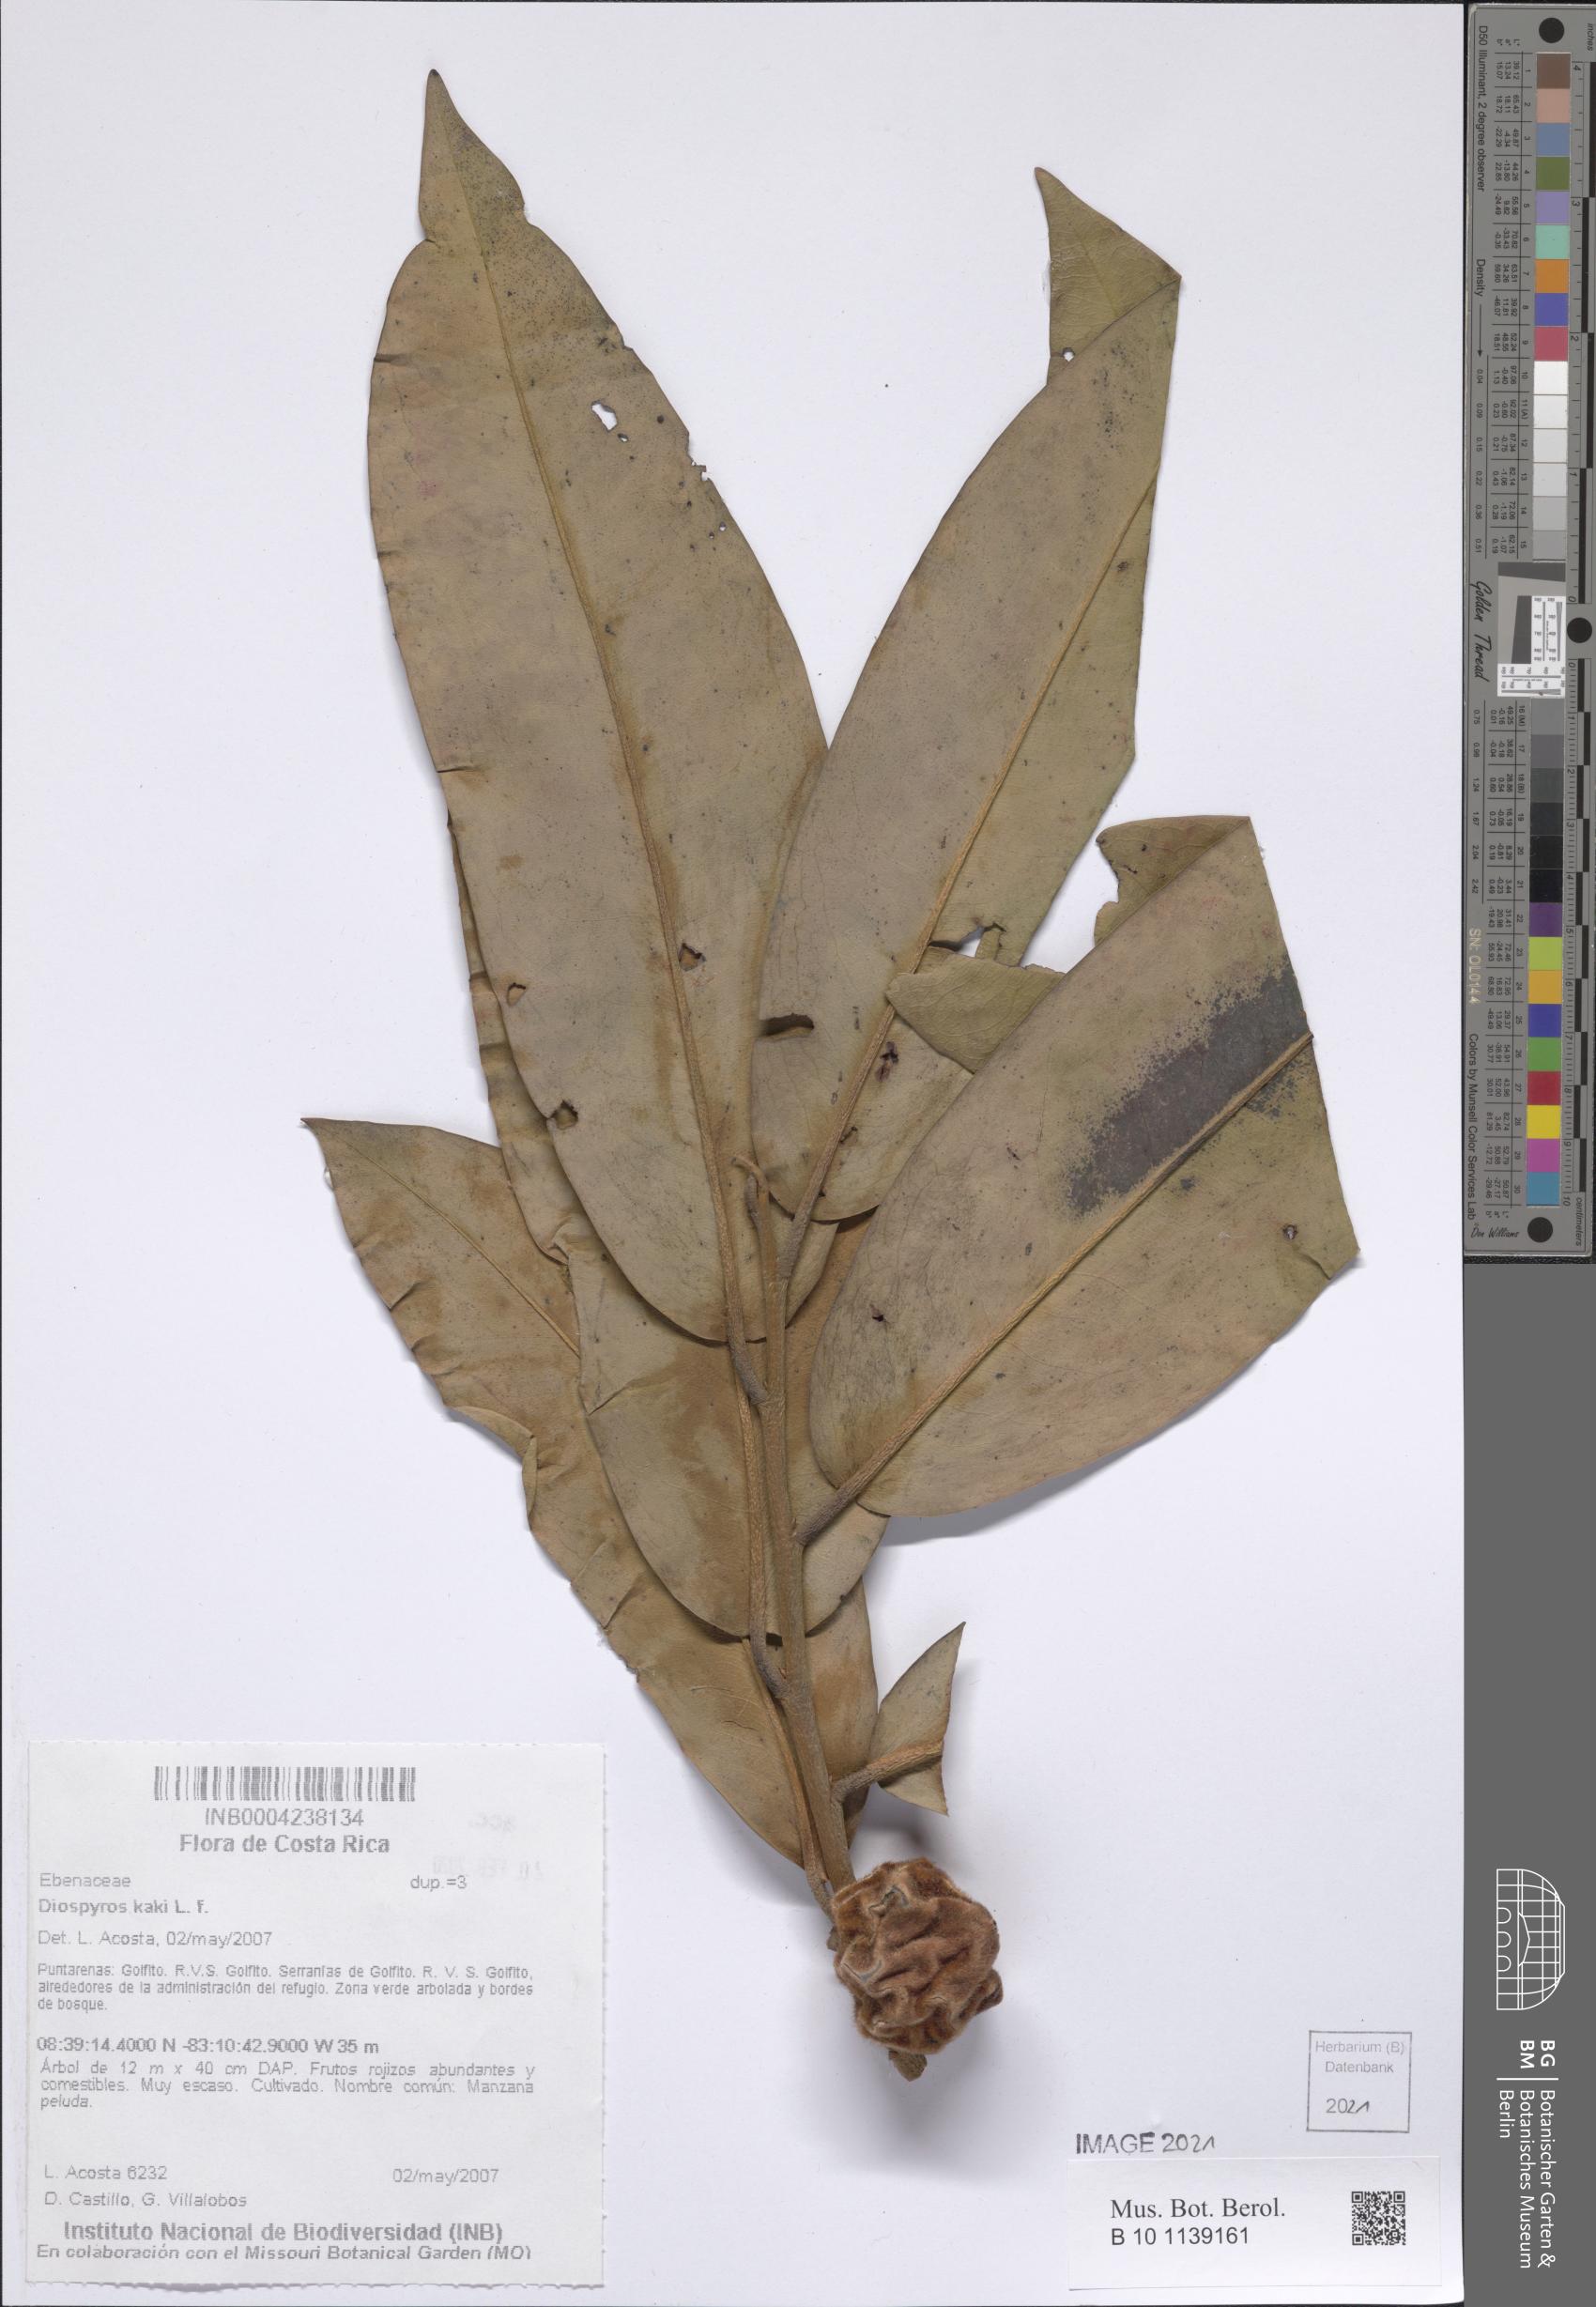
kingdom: Plantae
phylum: Tracheophyta
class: Magnoliopsida
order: Ericales
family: Ebenaceae
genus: Diospyros
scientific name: Diospyros blancoi
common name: Mabola-tree
